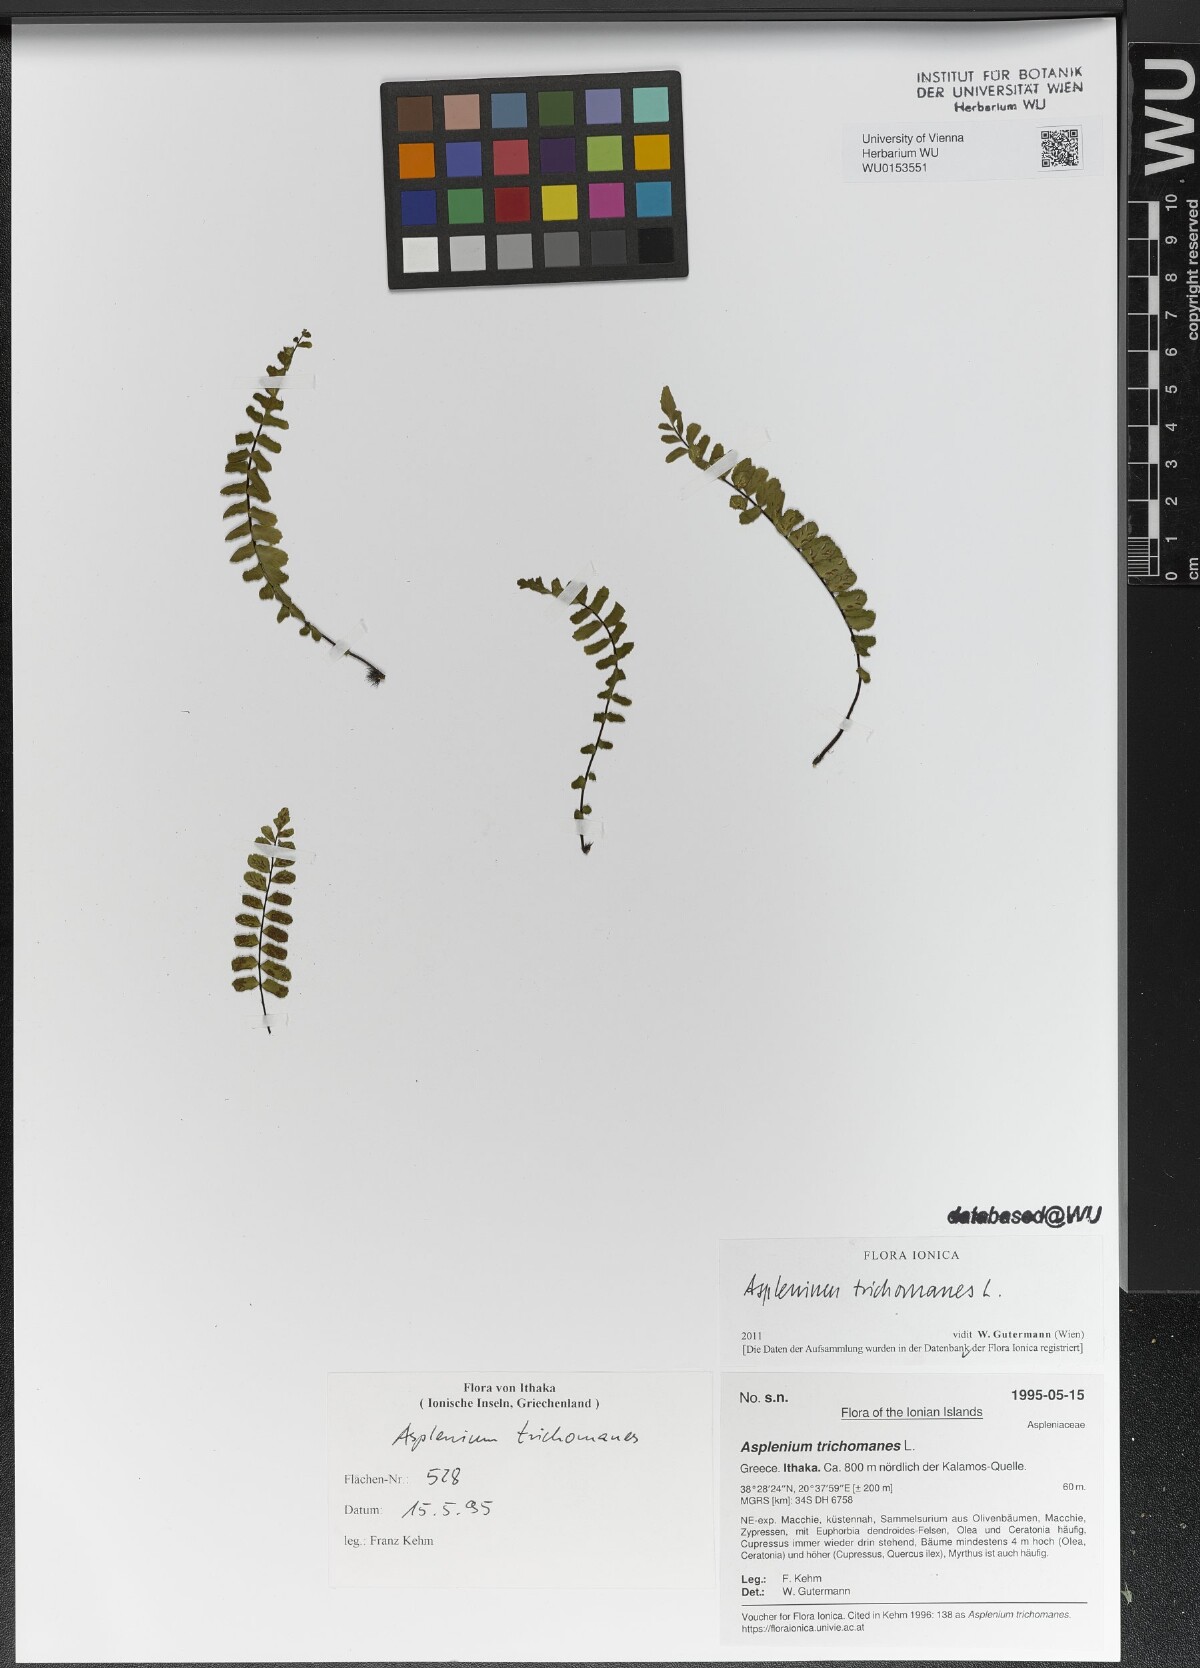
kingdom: Plantae
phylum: Tracheophyta
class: Polypodiopsida
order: Polypodiales
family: Aspleniaceae
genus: Asplenium
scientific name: Asplenium trichomanes
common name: Maidenhair spleenwort
